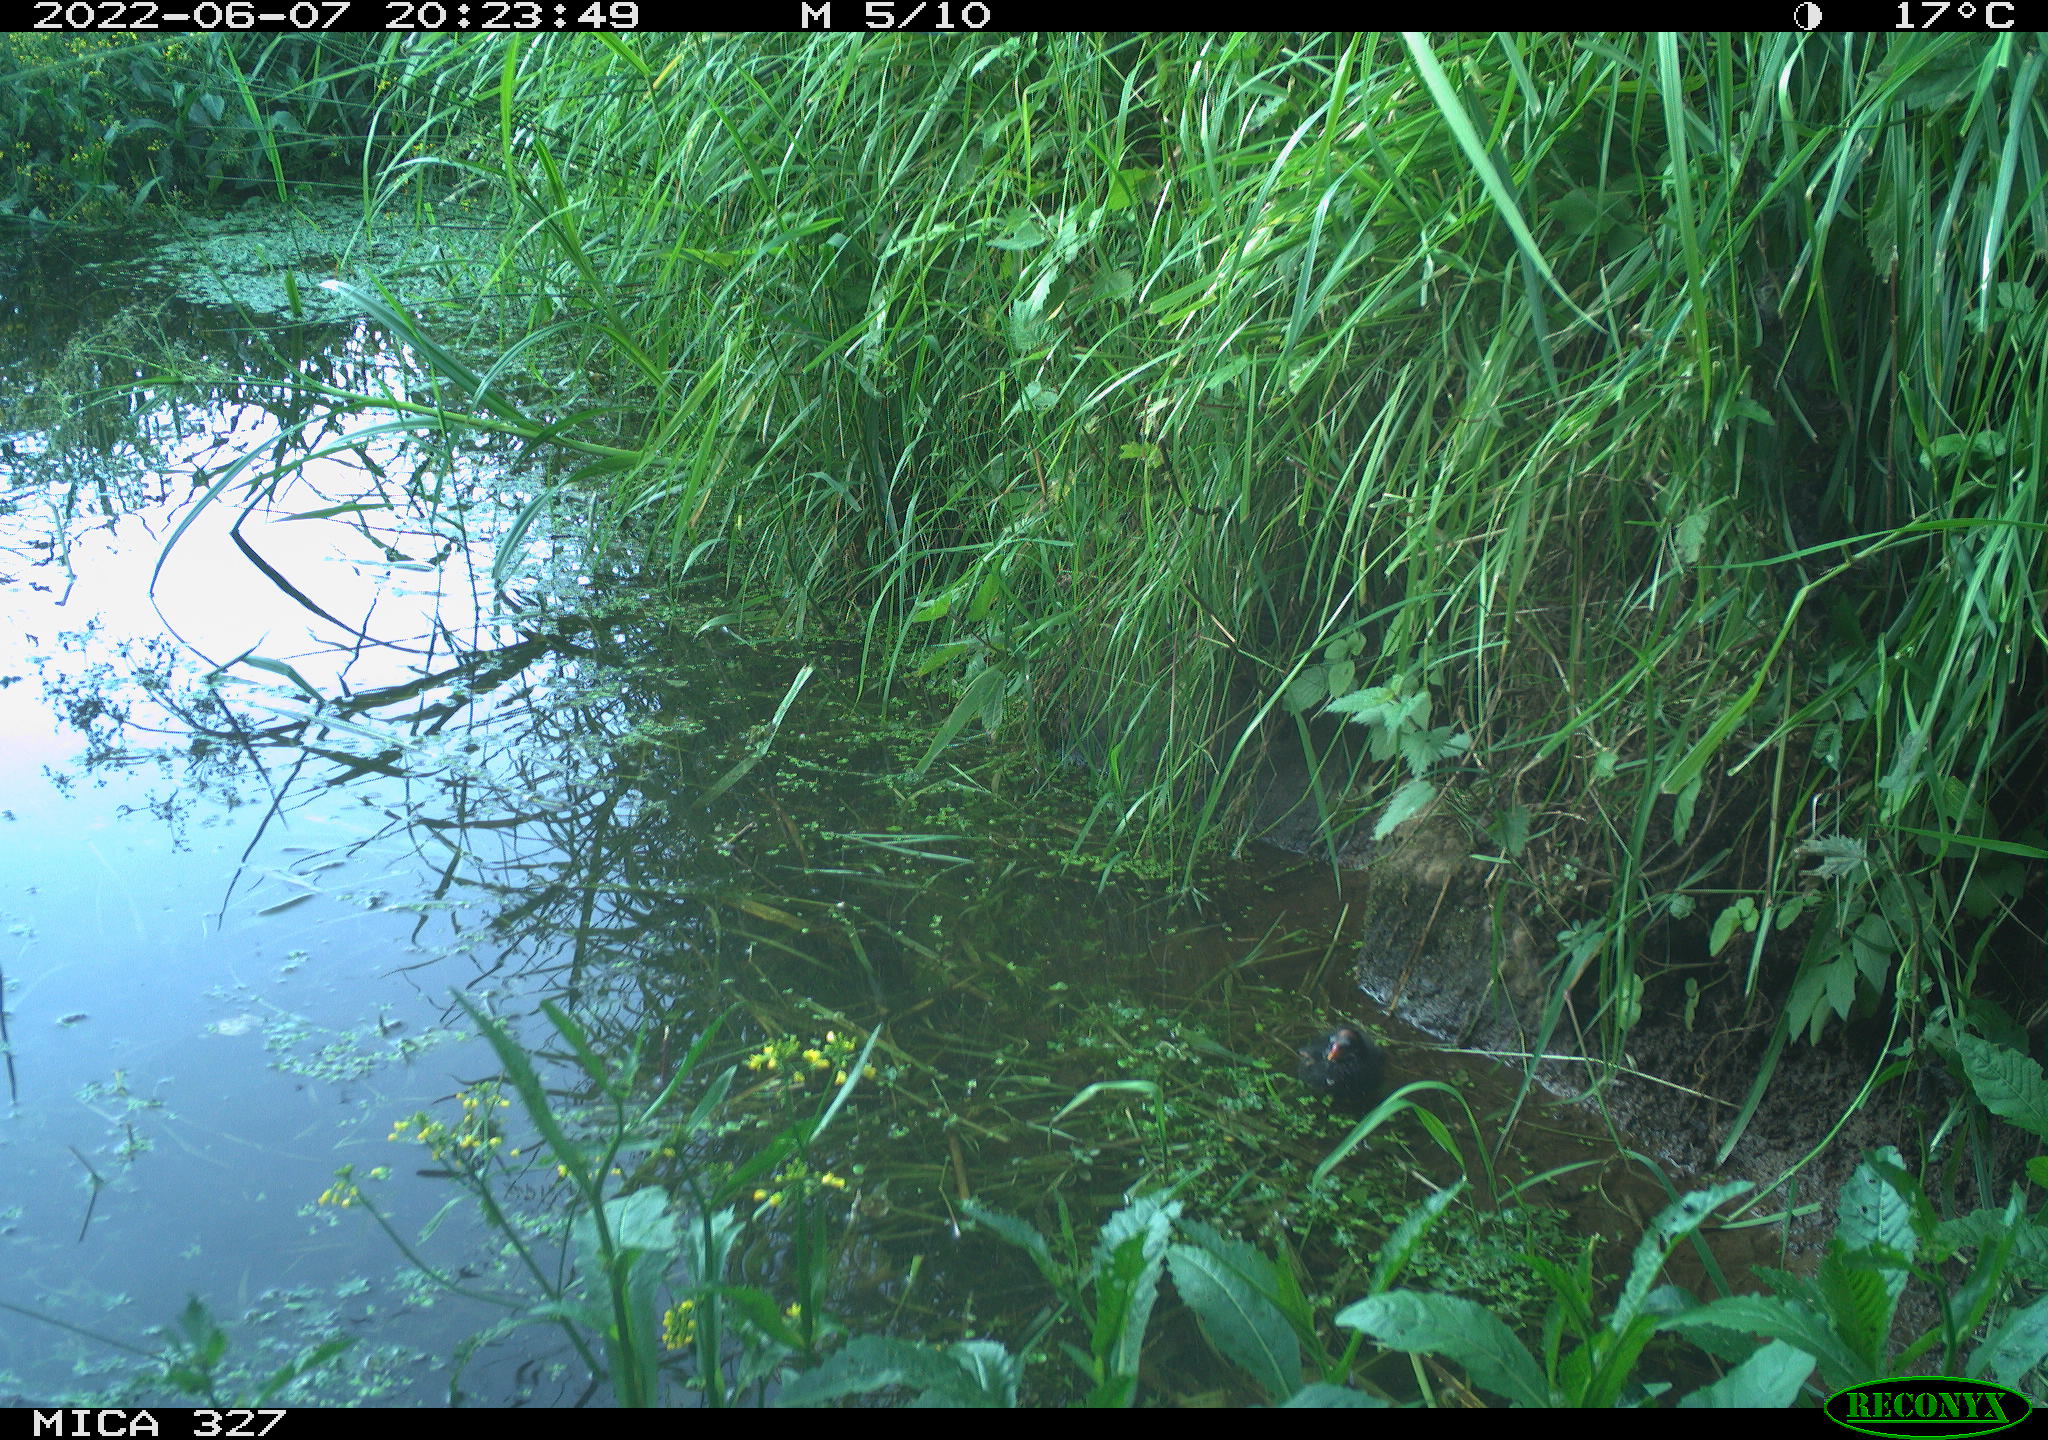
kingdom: Animalia
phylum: Chordata
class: Aves
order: Gruiformes
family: Rallidae
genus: Gallinula
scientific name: Gallinula chloropus
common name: Common moorhen
